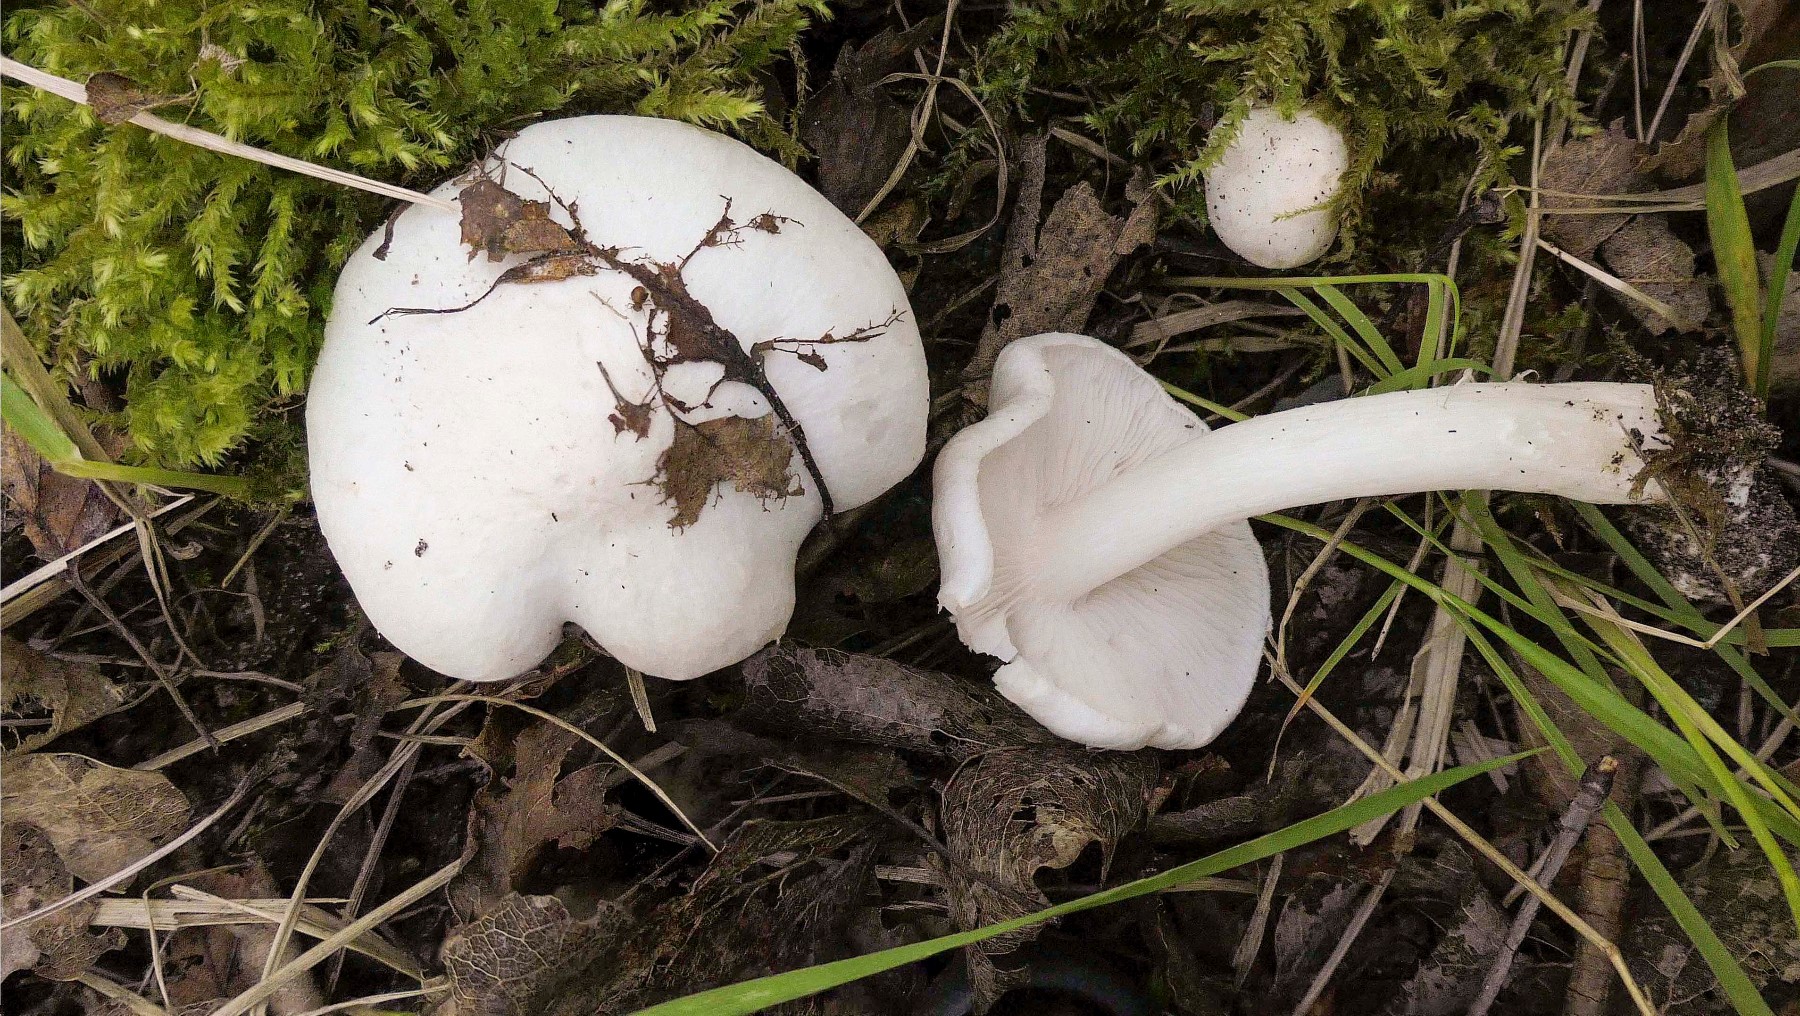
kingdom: Fungi
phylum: Basidiomycota
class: Agaricomycetes
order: Agaricales
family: Tricholomataceae
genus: Tricholoma
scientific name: Tricholoma argyraceum
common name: spids ridderhat
